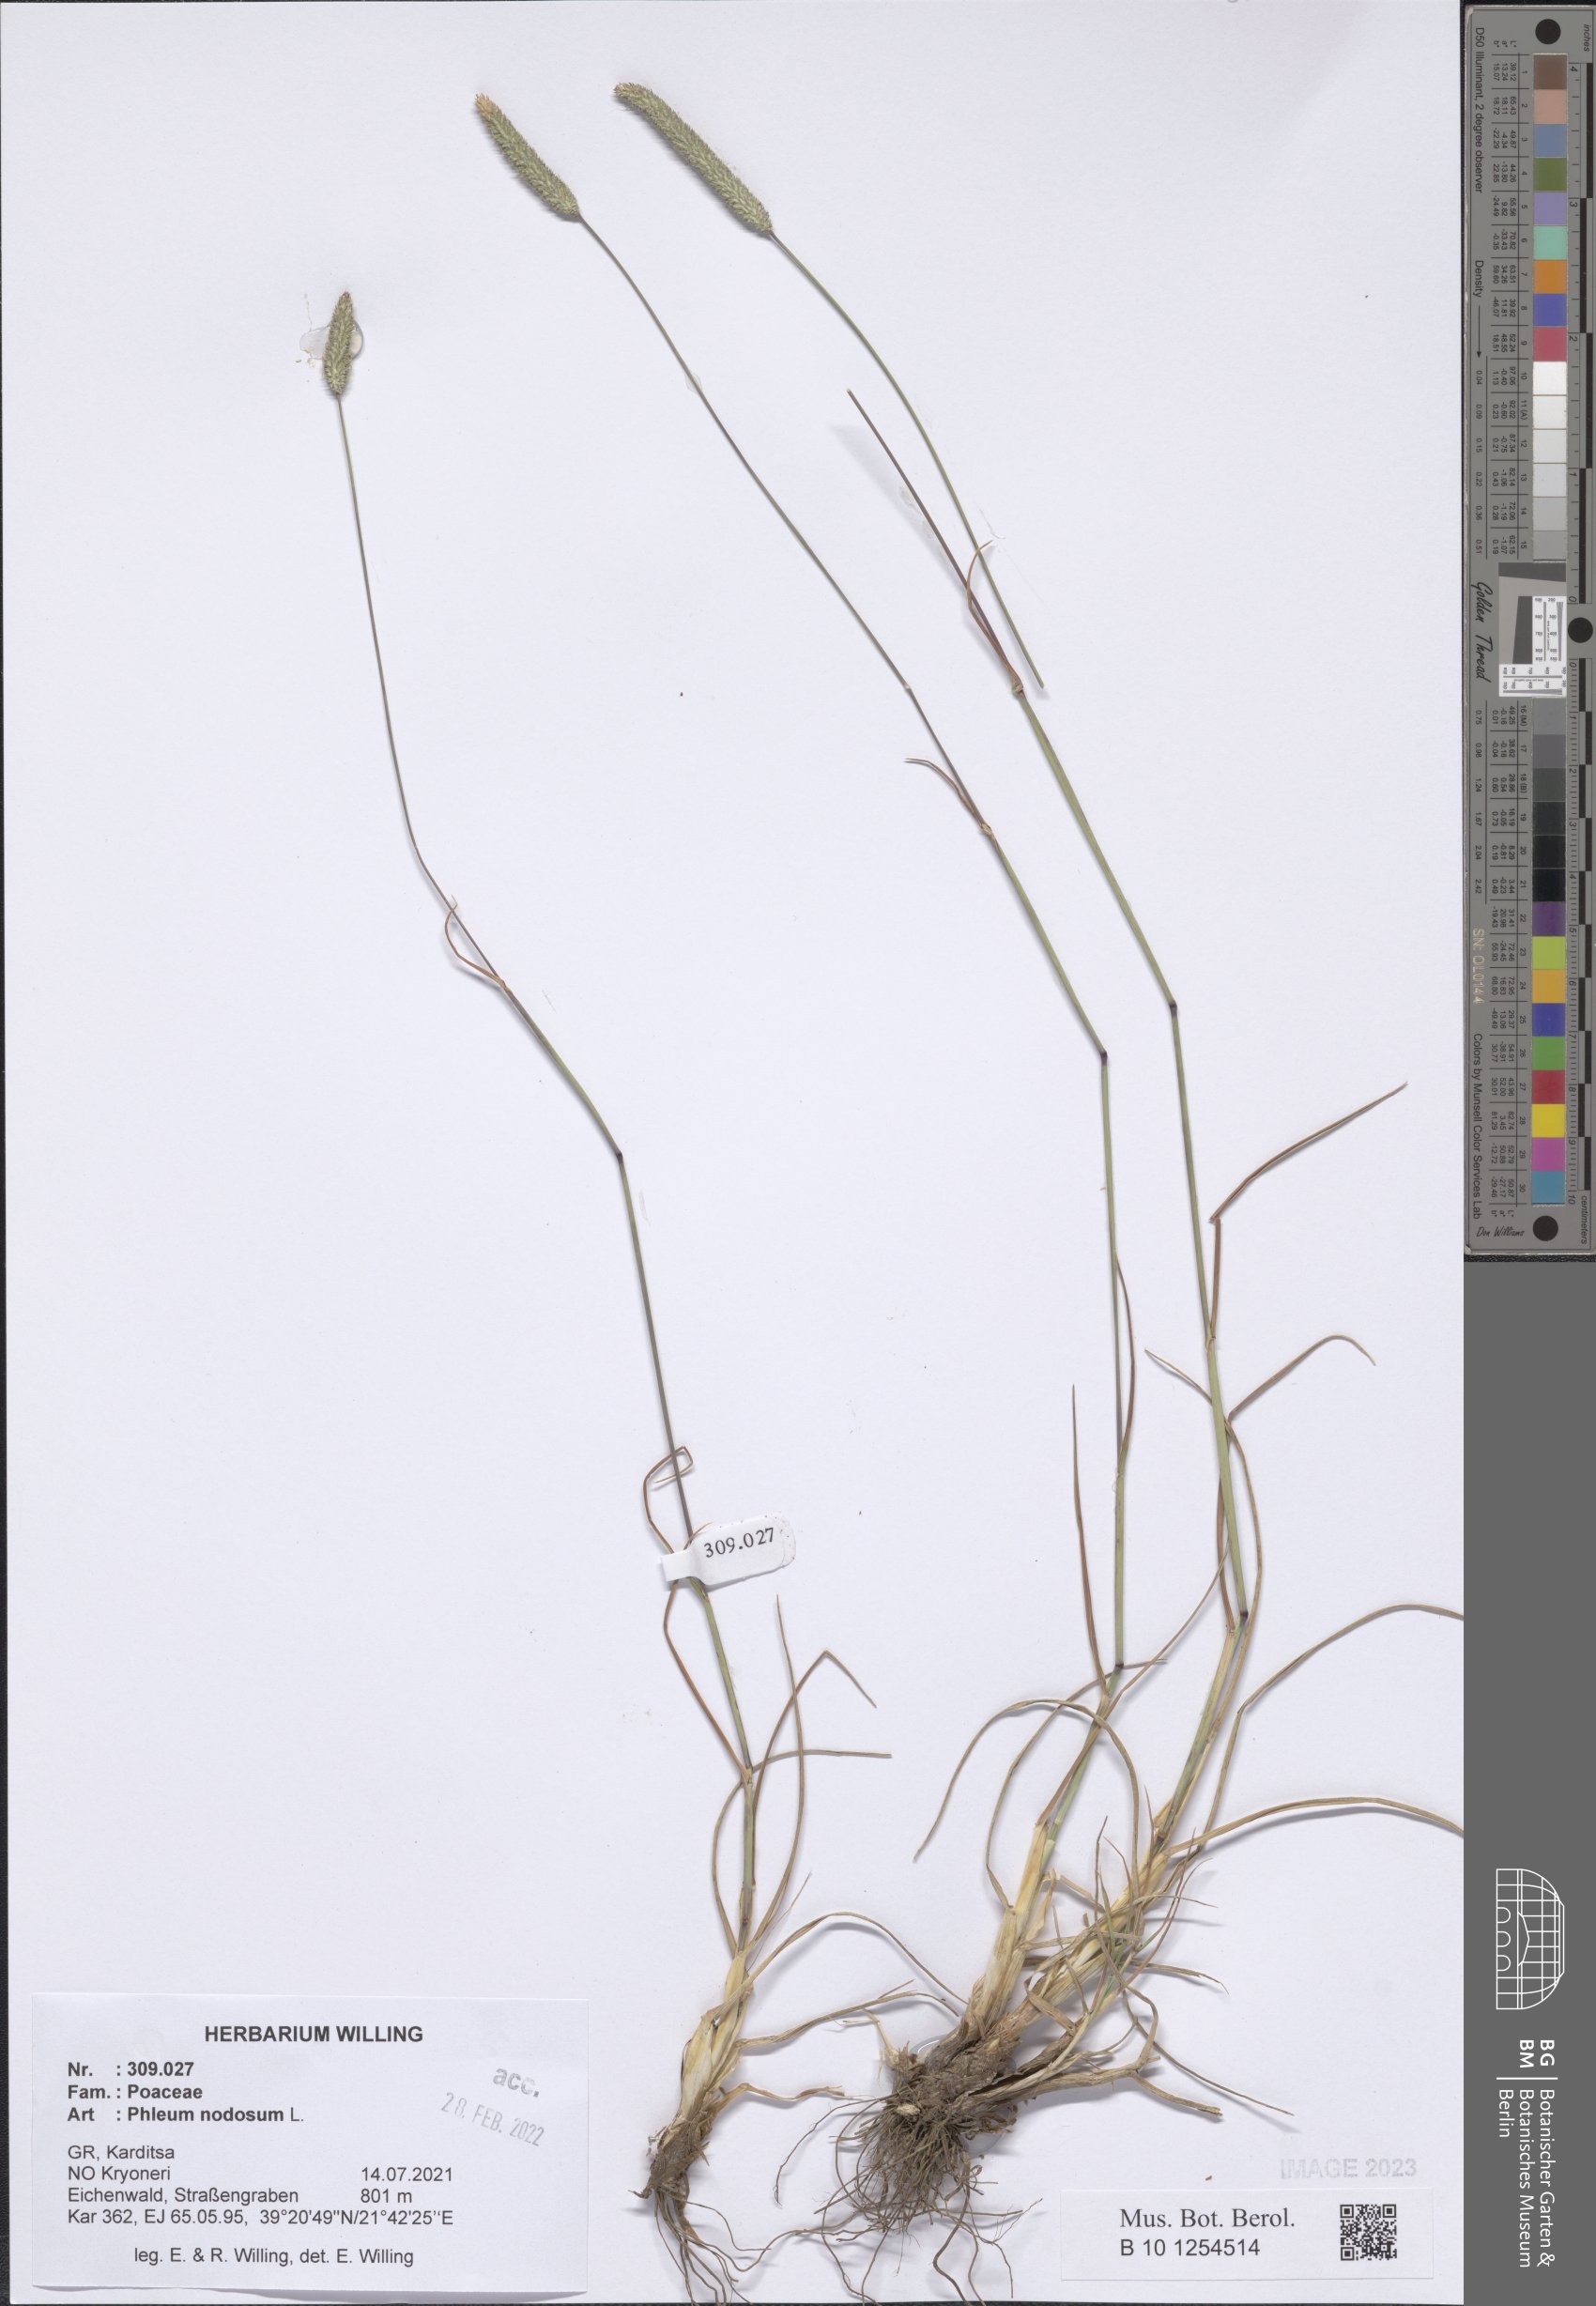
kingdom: Plantae
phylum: Tracheophyta
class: Liliopsida
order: Poales
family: Poaceae
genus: Phleum
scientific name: Phleum pratense
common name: Timothy grass
